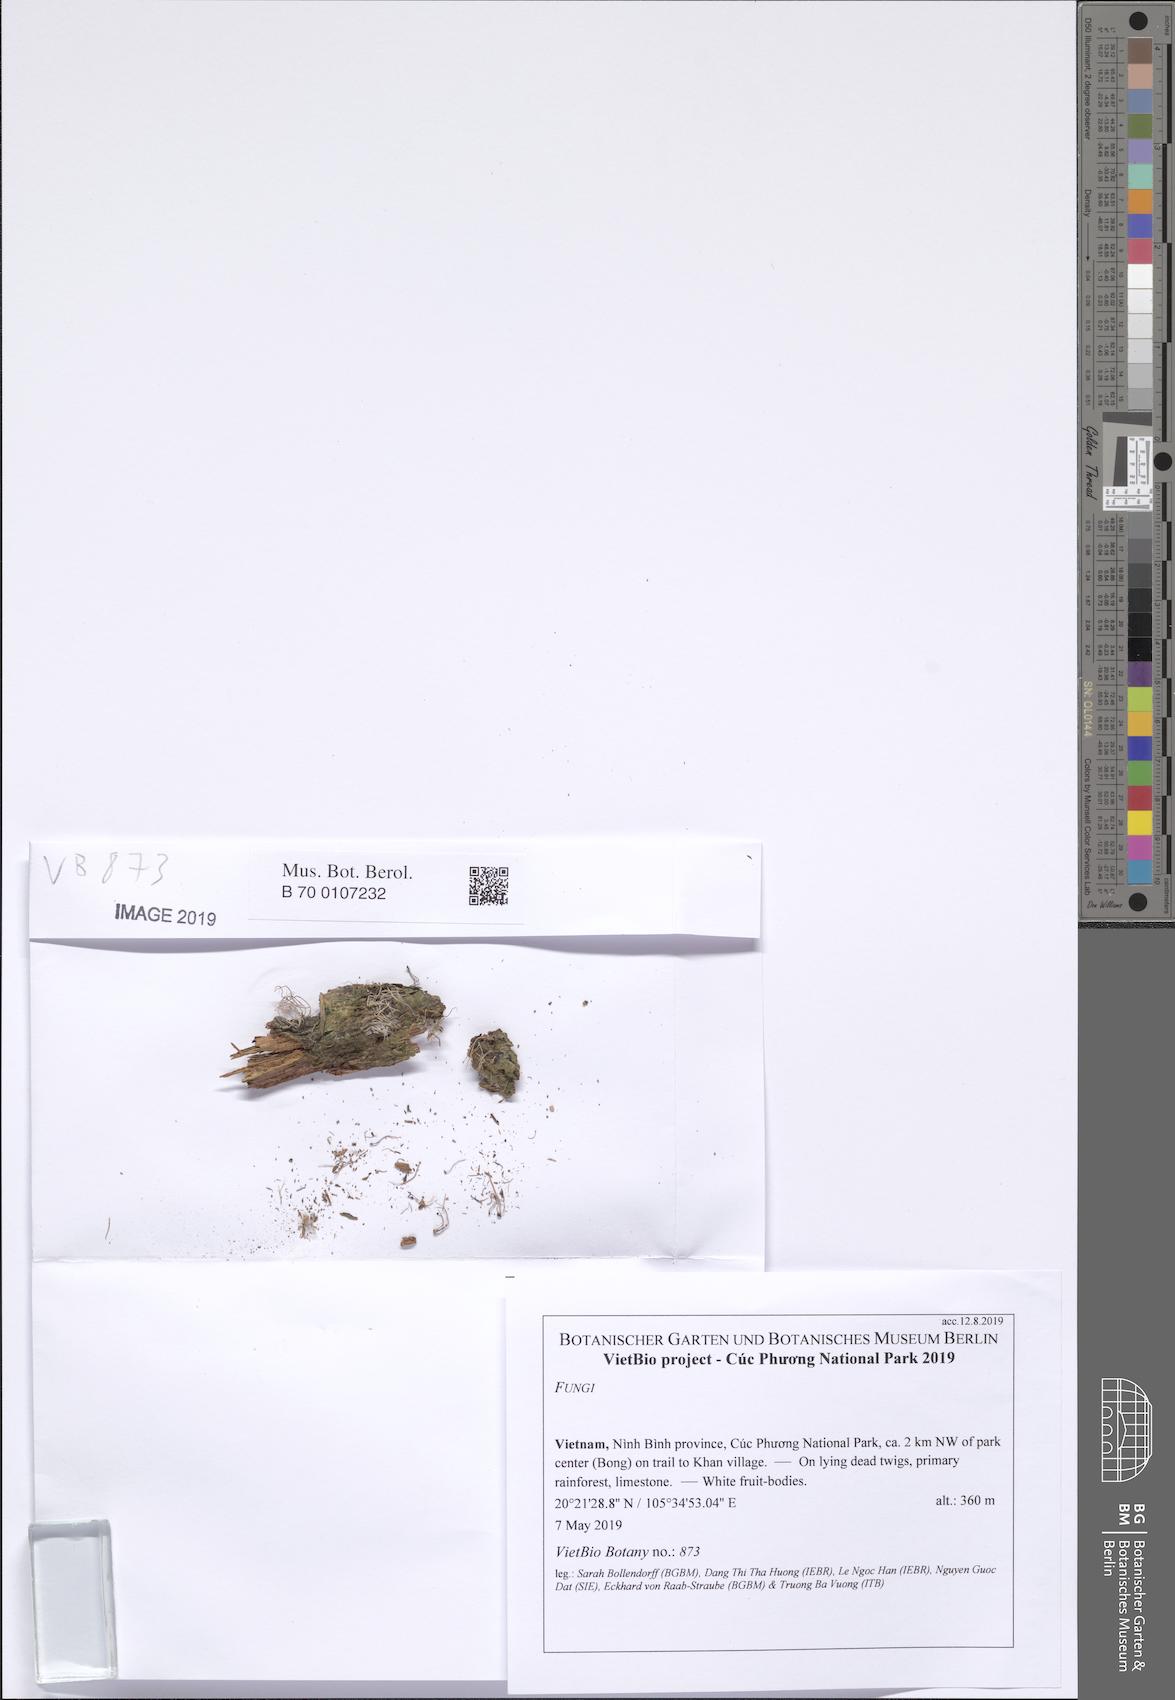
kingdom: Fungi
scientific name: Fungi
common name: Fungi
